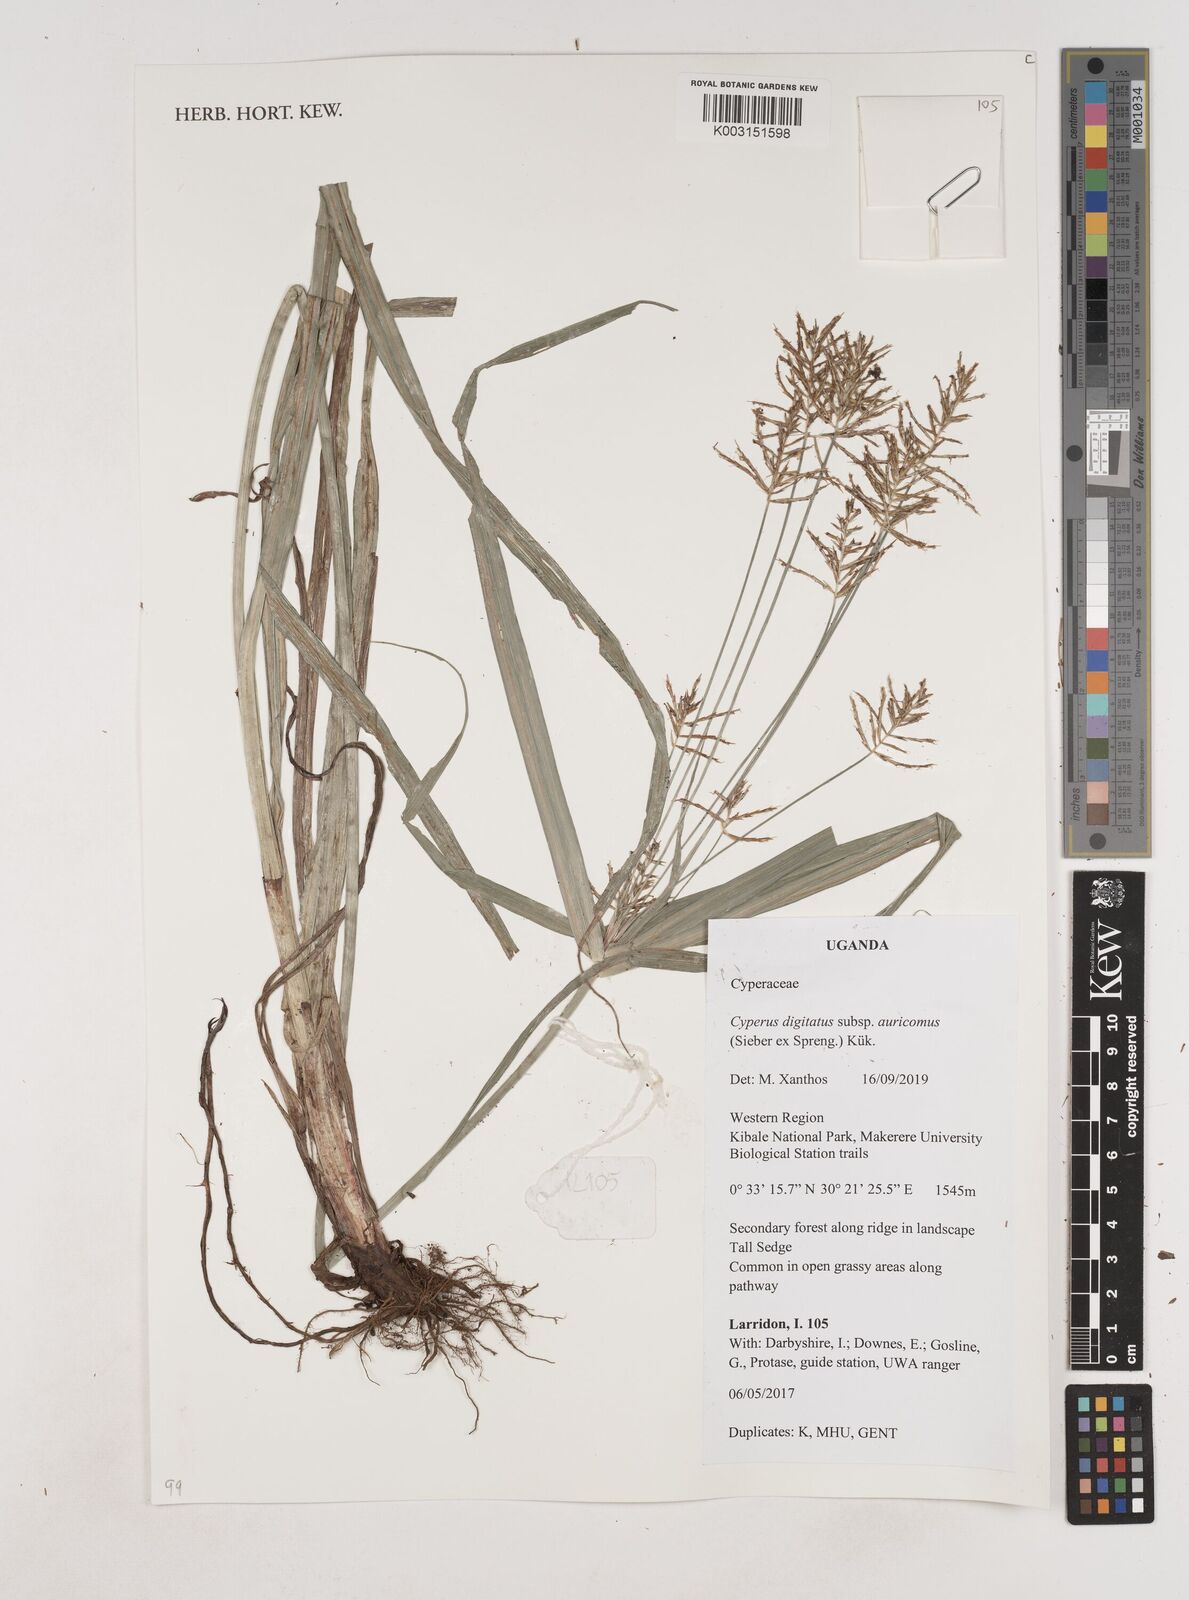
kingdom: Plantae
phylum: Tracheophyta
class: Liliopsida
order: Poales
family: Cyperaceae
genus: Cyperus
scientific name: Cyperus digitatus
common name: Finger flatsedge
